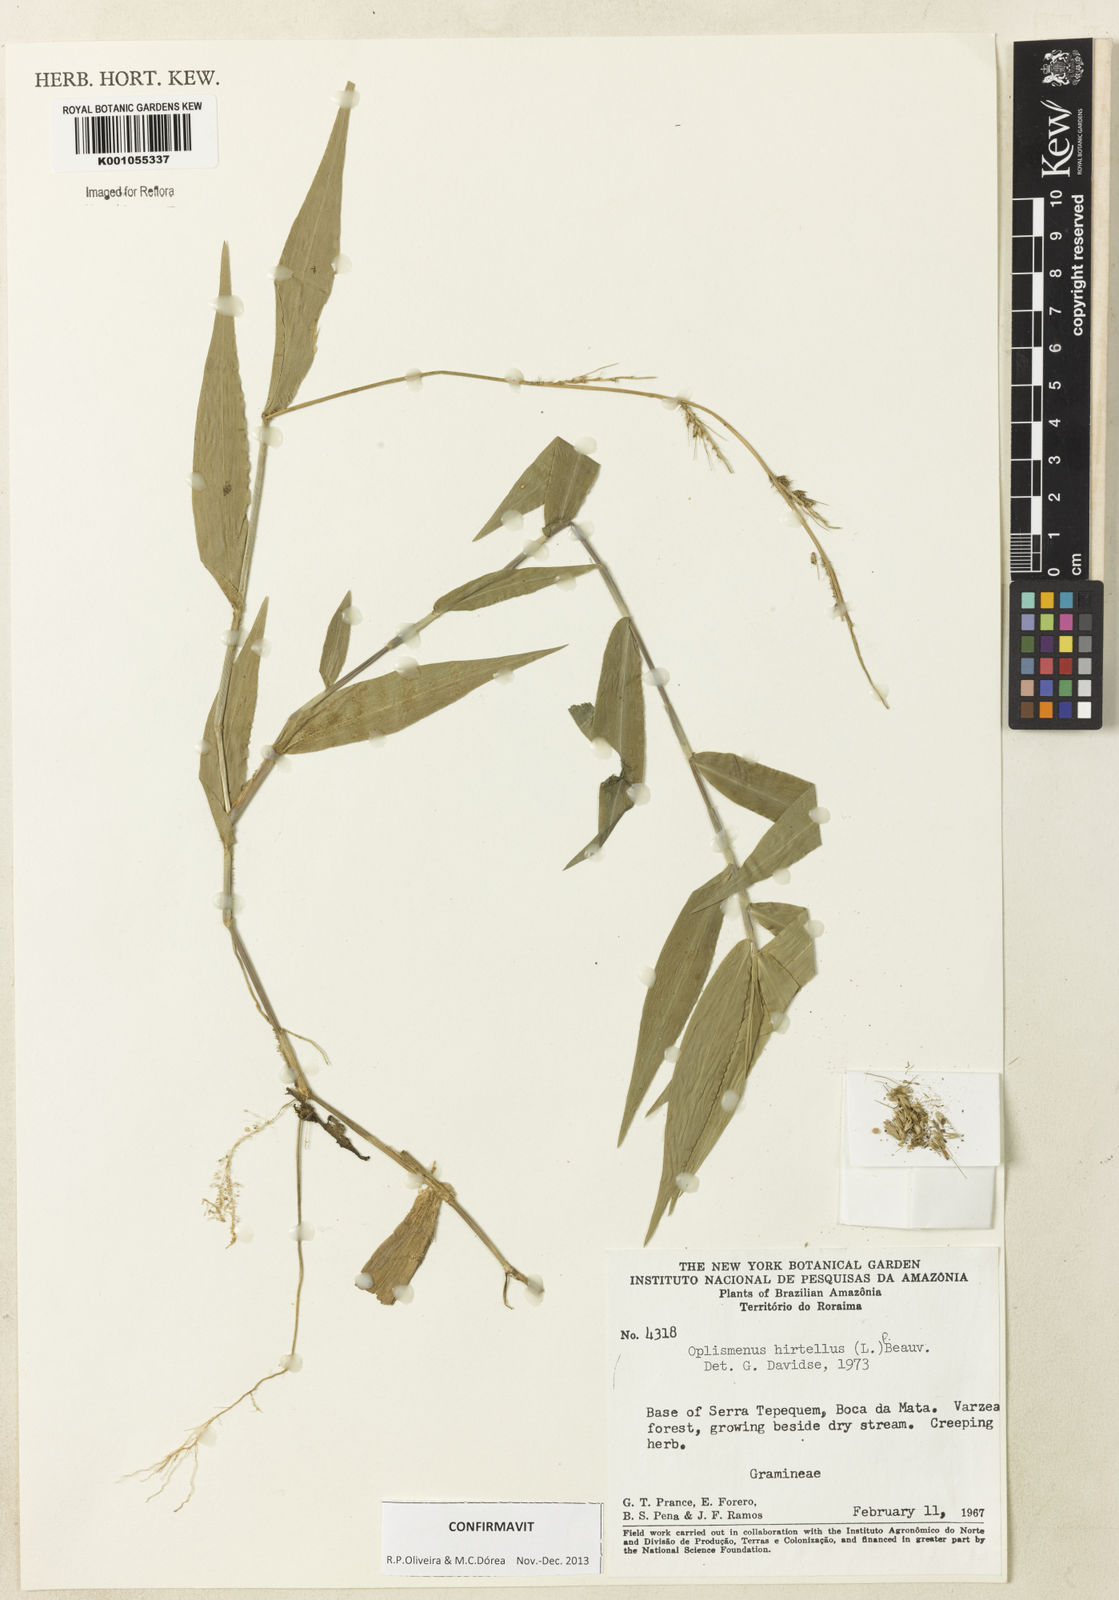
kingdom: Plantae
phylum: Tracheophyta
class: Liliopsida
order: Poales
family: Poaceae
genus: Oplismenus
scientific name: Oplismenus hirtellus
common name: Basketgrass
